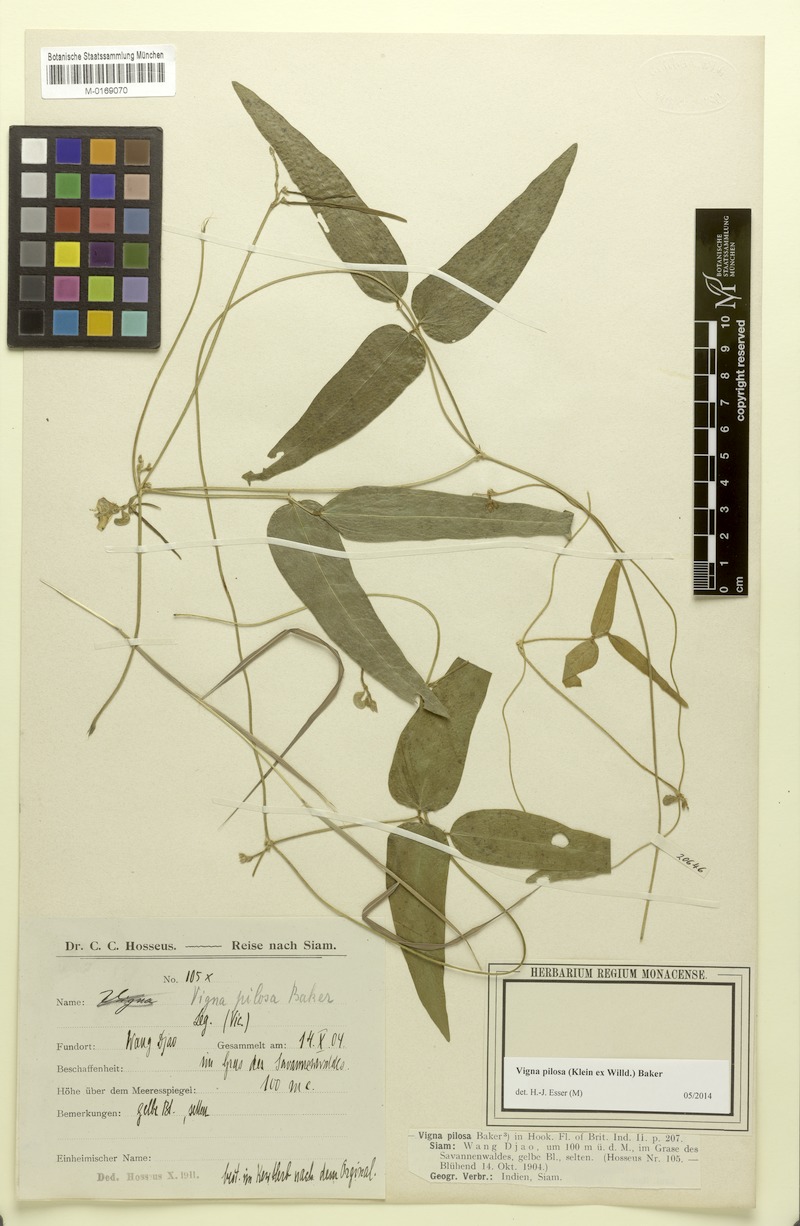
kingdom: Plantae
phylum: Tracheophyta
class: Magnoliopsida
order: Fabales
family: Fabaceae
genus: Dysolobium
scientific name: Dysolobium pilosum
